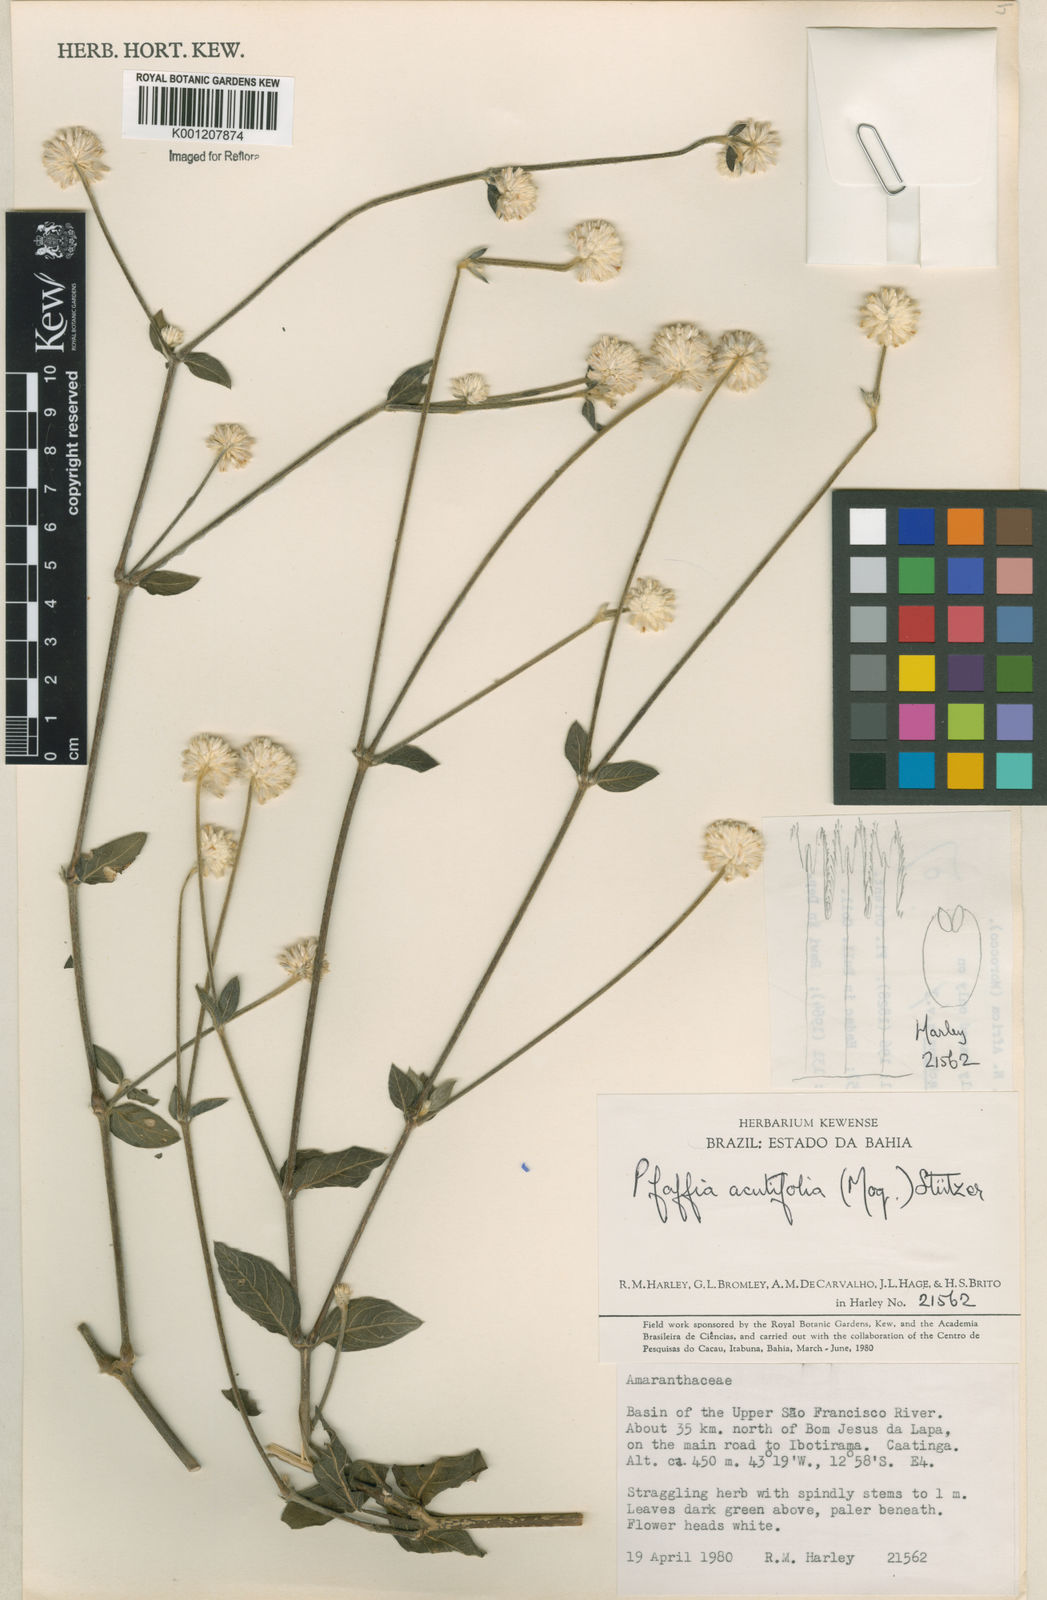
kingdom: Plantae
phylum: Tracheophyta
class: Magnoliopsida
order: Caryophyllales
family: Amaranthaceae
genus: Pfaffia
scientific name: Pfaffia
